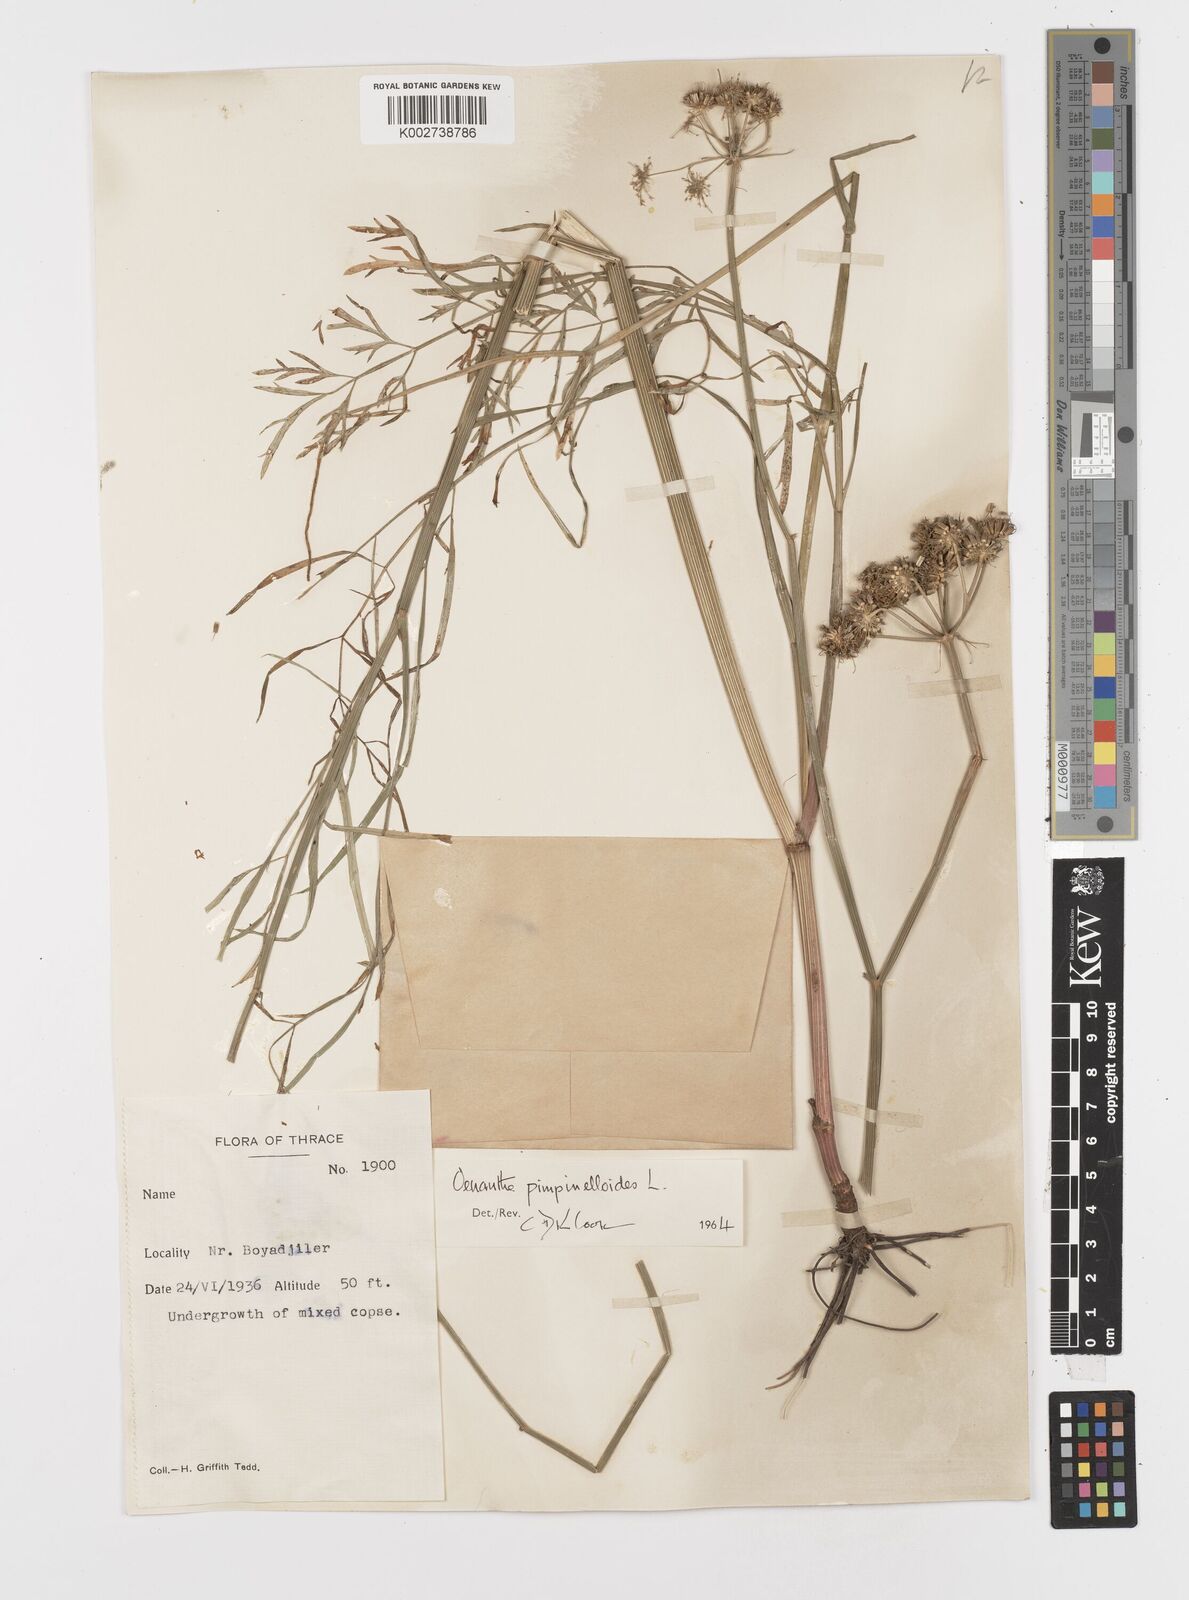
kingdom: Plantae
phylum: Tracheophyta
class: Magnoliopsida
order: Apiales
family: Apiaceae
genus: Oenanthe
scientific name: Oenanthe pimpinelloides
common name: Corky-fruited water-dropwort
